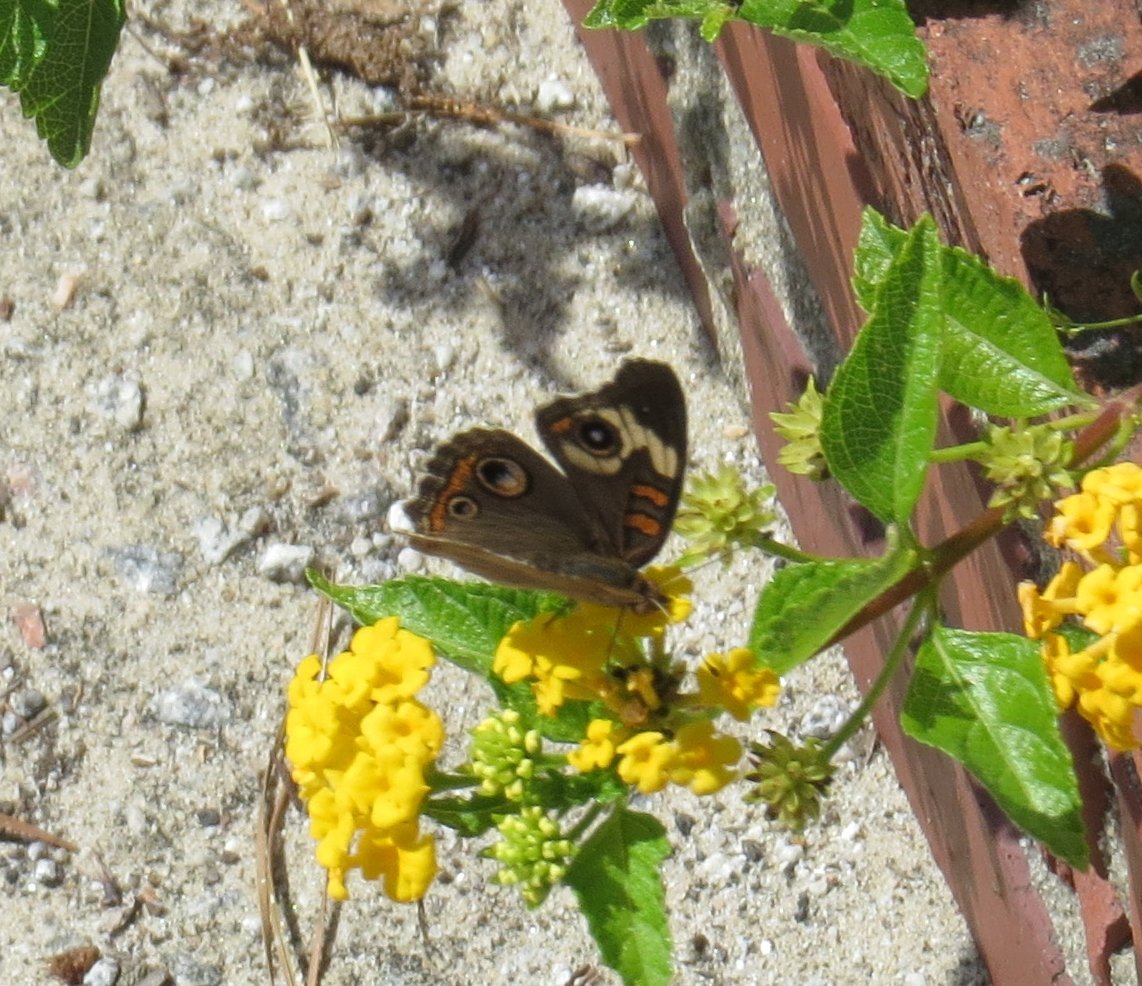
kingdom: Animalia
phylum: Arthropoda
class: Insecta
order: Lepidoptera
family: Hesperiidae
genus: Gesta
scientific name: Gesta
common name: Horace's Duskywing
